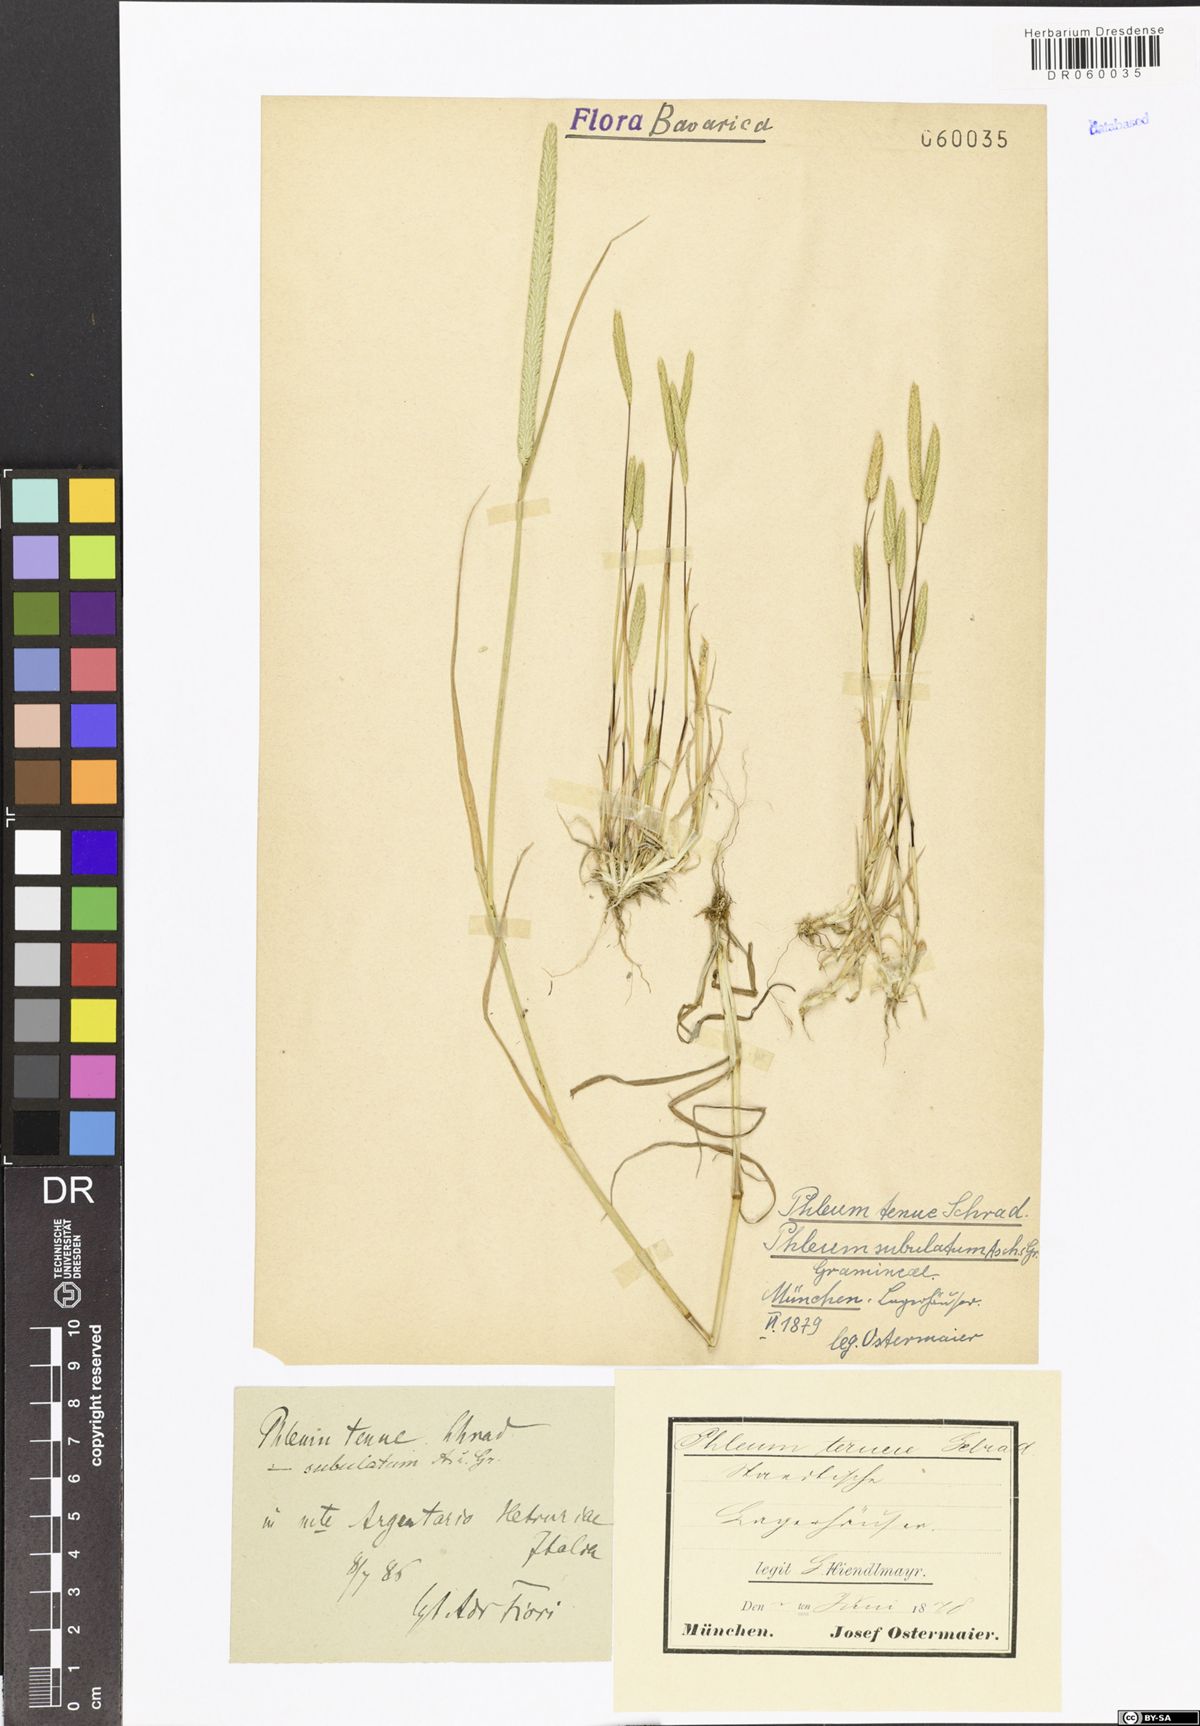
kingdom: Plantae
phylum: Tracheophyta
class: Liliopsida
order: Poales
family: Poaceae
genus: Phleum
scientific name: Phleum subulatum
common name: Italian timothy
